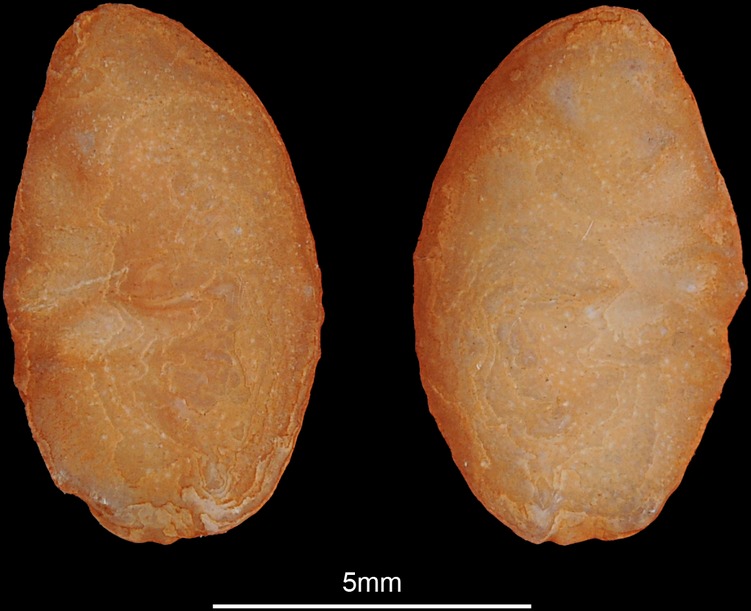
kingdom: Animalia
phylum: Chordata
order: Perciformes
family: Percidae
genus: Gymnocephalus
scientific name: Gymnocephalus schraetser
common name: Schraetzer
